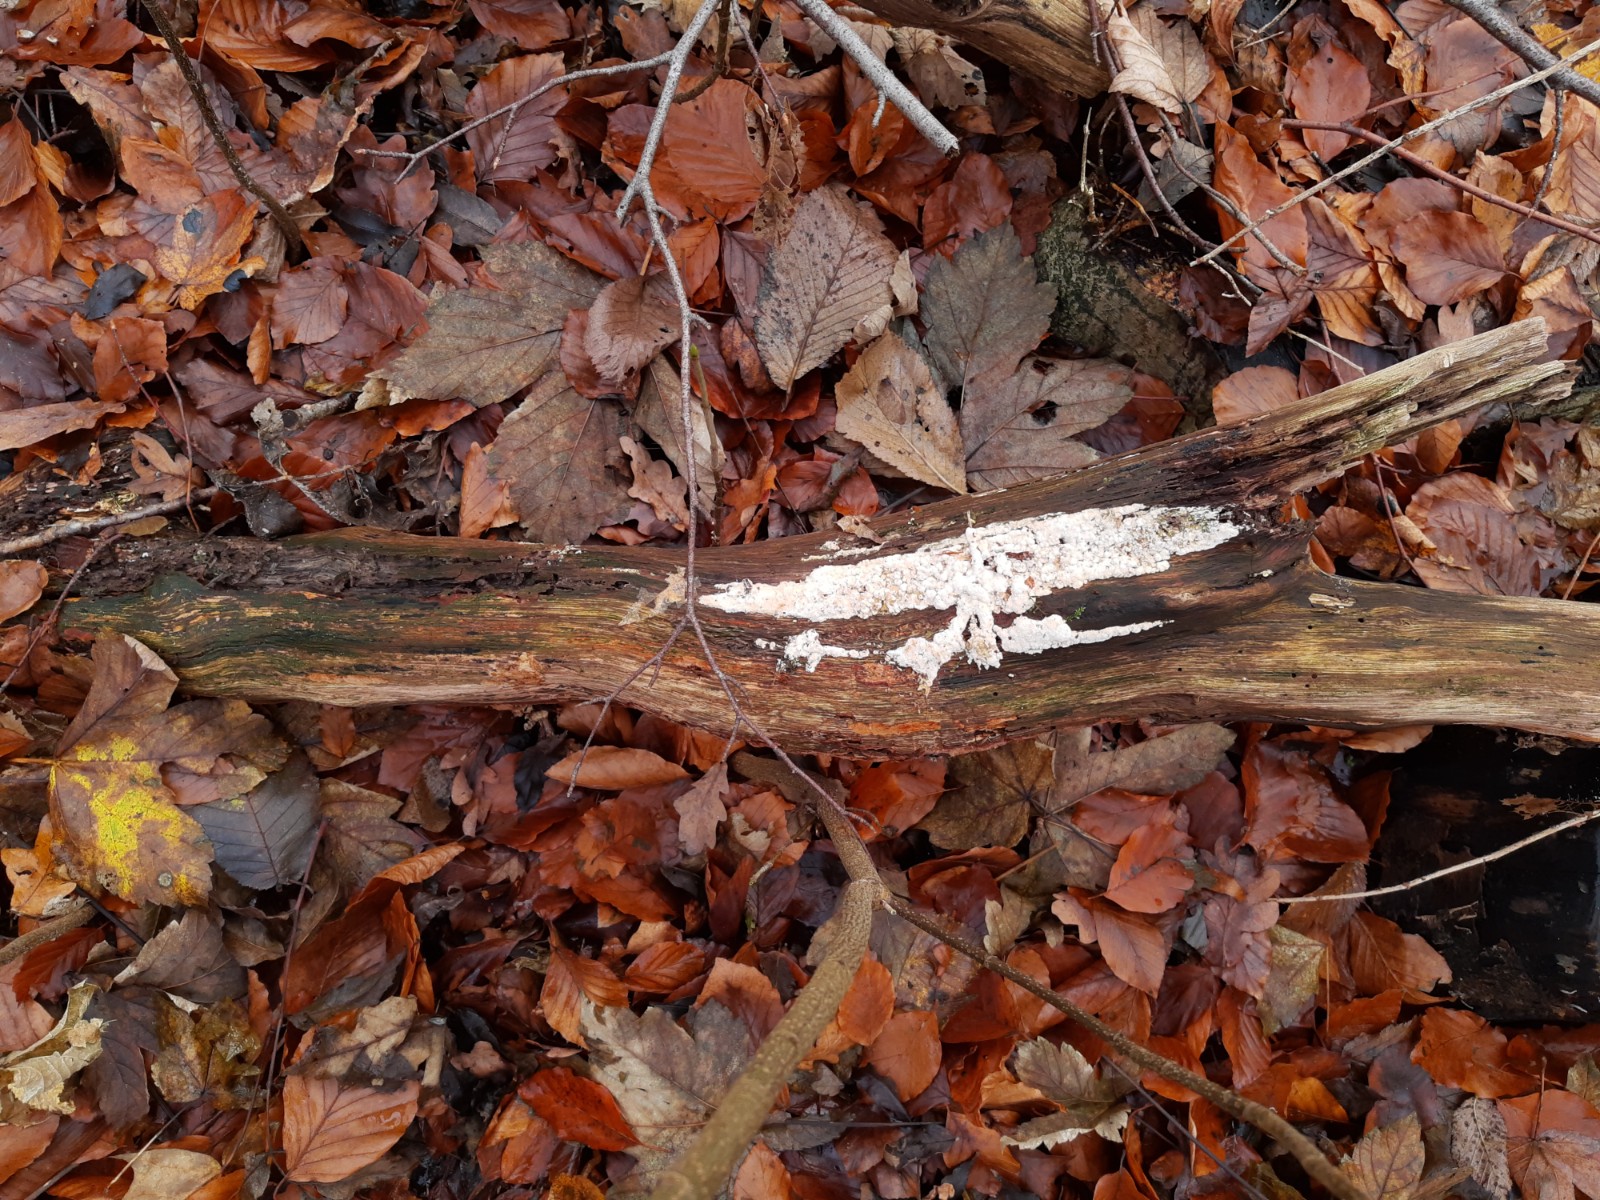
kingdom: Fungi
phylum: Basidiomycota
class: Agaricomycetes
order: Hymenochaetales
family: Schizoporaceae
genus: Schizopora
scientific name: Schizopora paradoxa
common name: hvid tandsvamp
